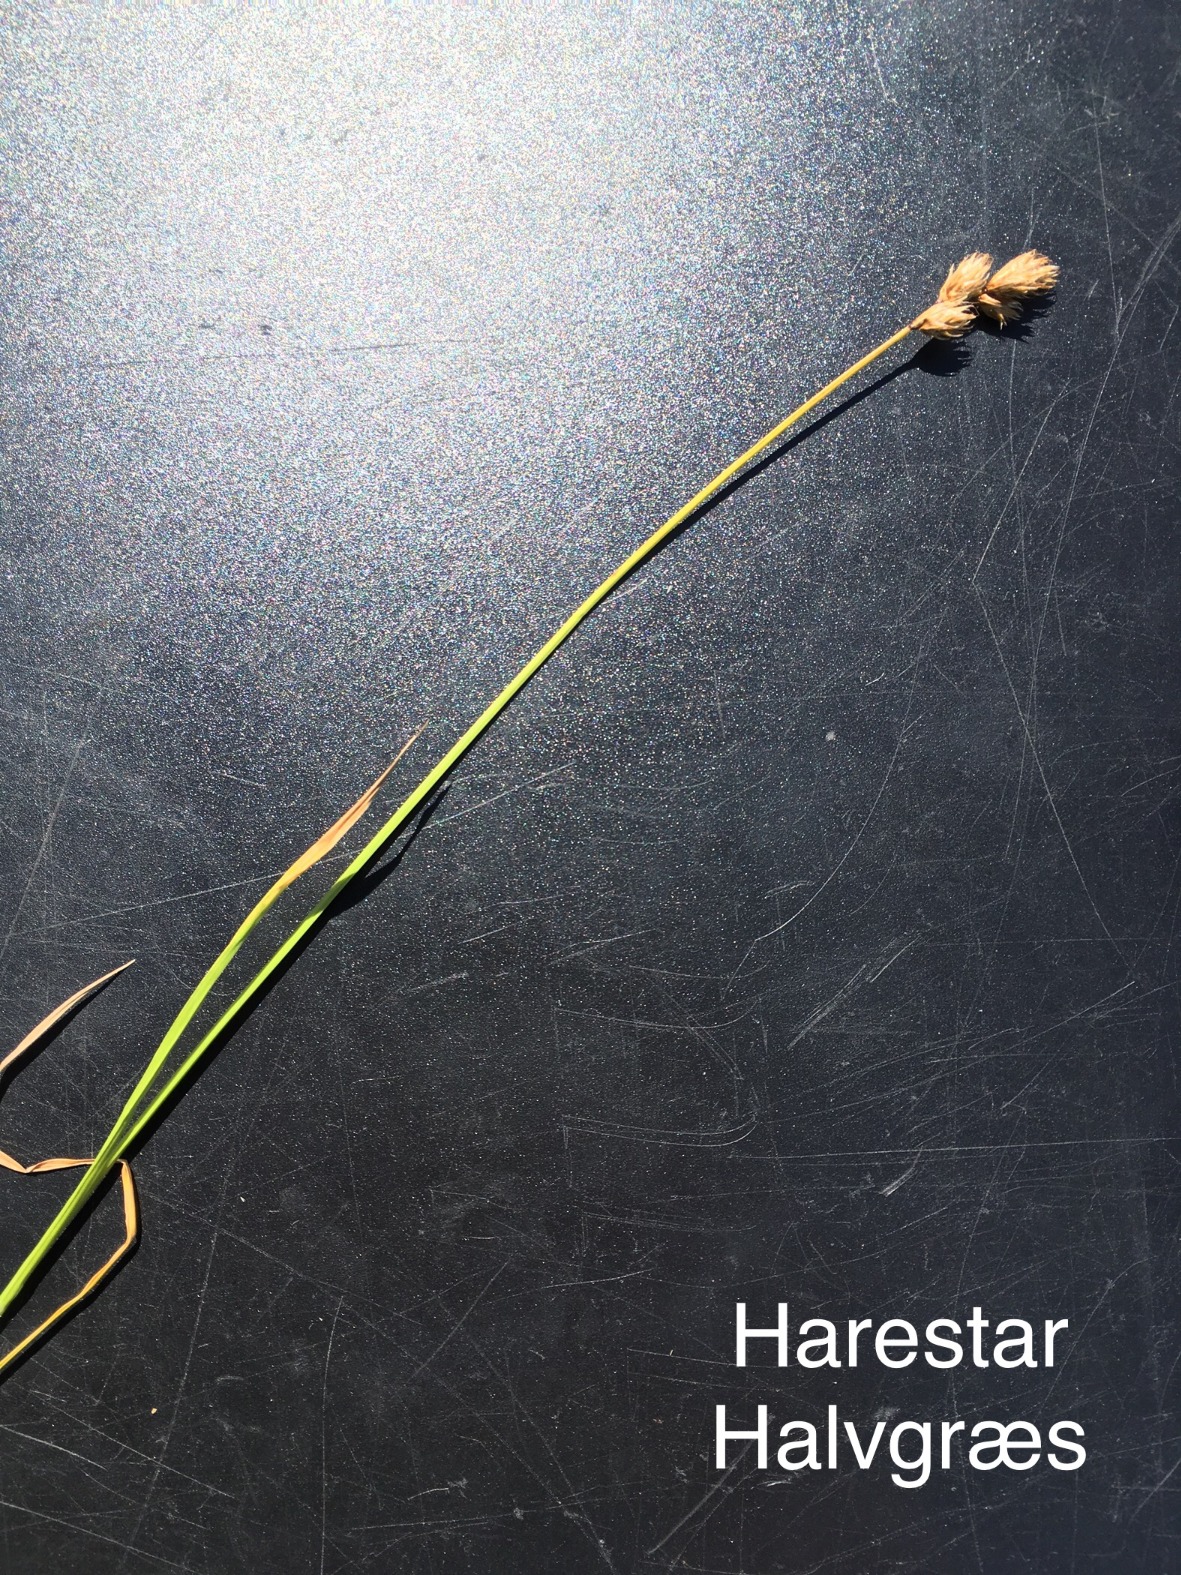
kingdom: Plantae
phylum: Tracheophyta
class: Liliopsida
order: Poales
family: Cyperaceae
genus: Carex
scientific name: Carex leporina
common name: Hare-star
